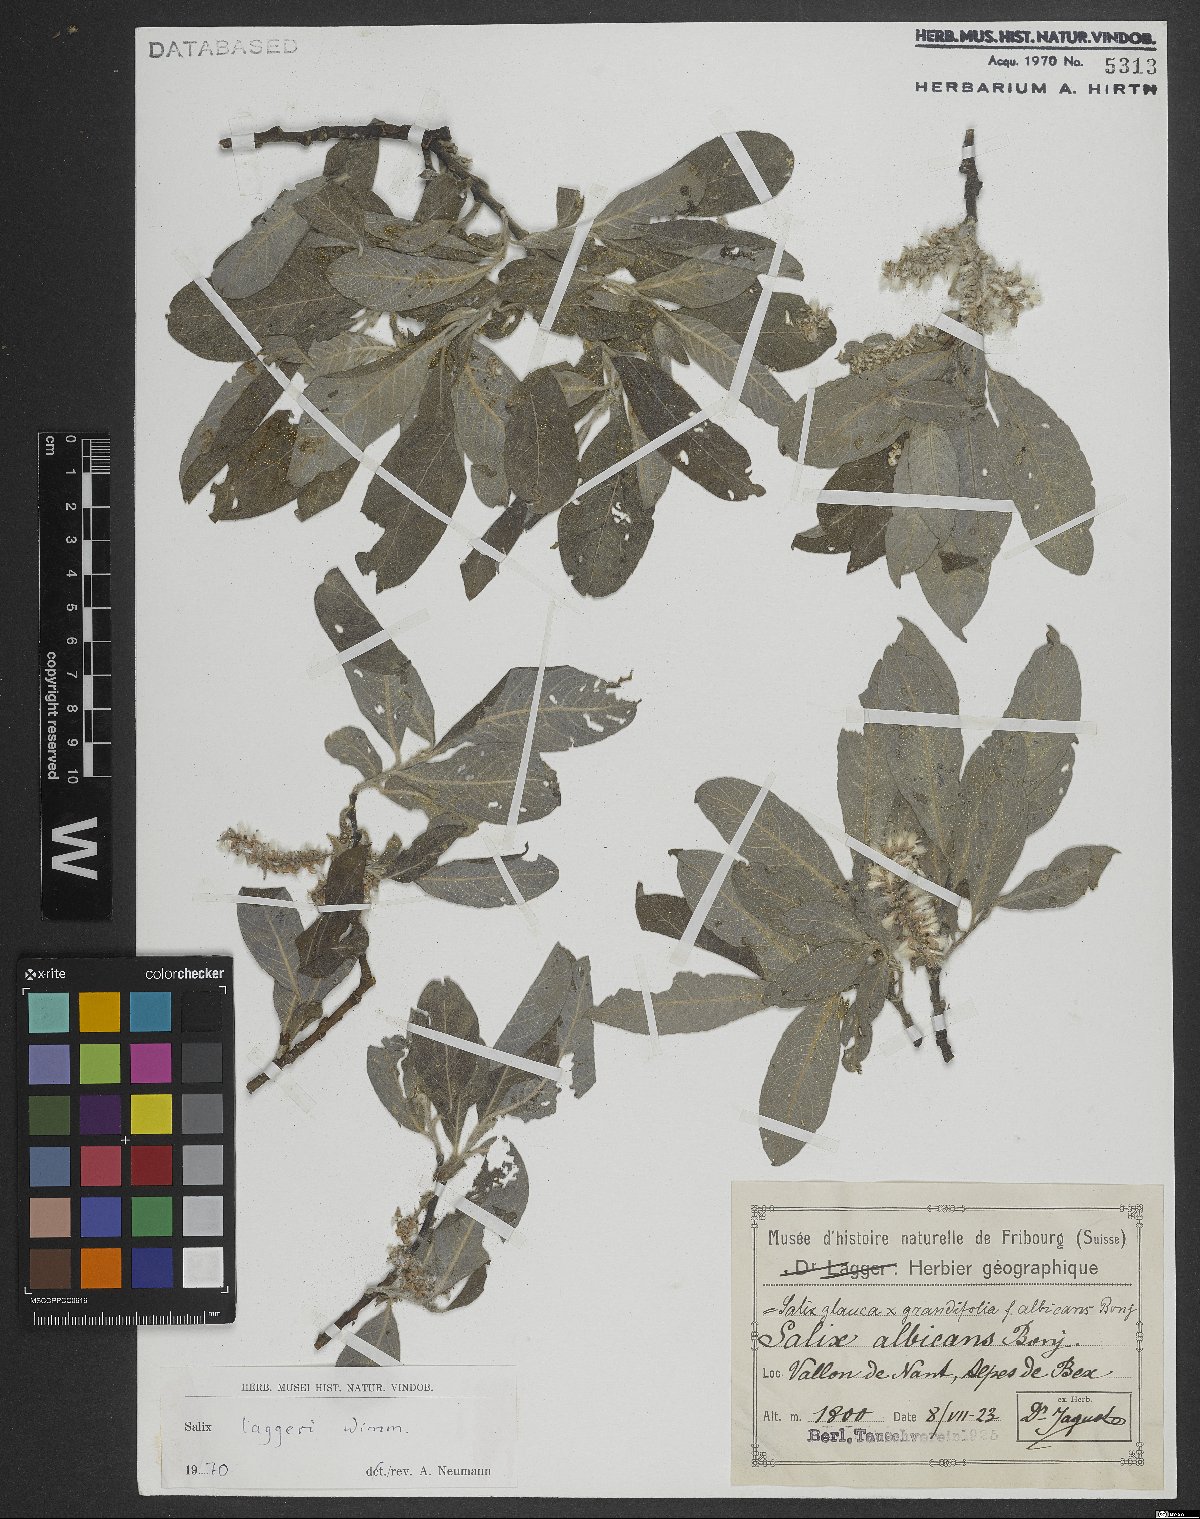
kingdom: Plantae
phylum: Tracheophyta
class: Magnoliopsida
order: Malpighiales
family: Salicaceae
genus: Salix
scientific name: Salix laggeri
